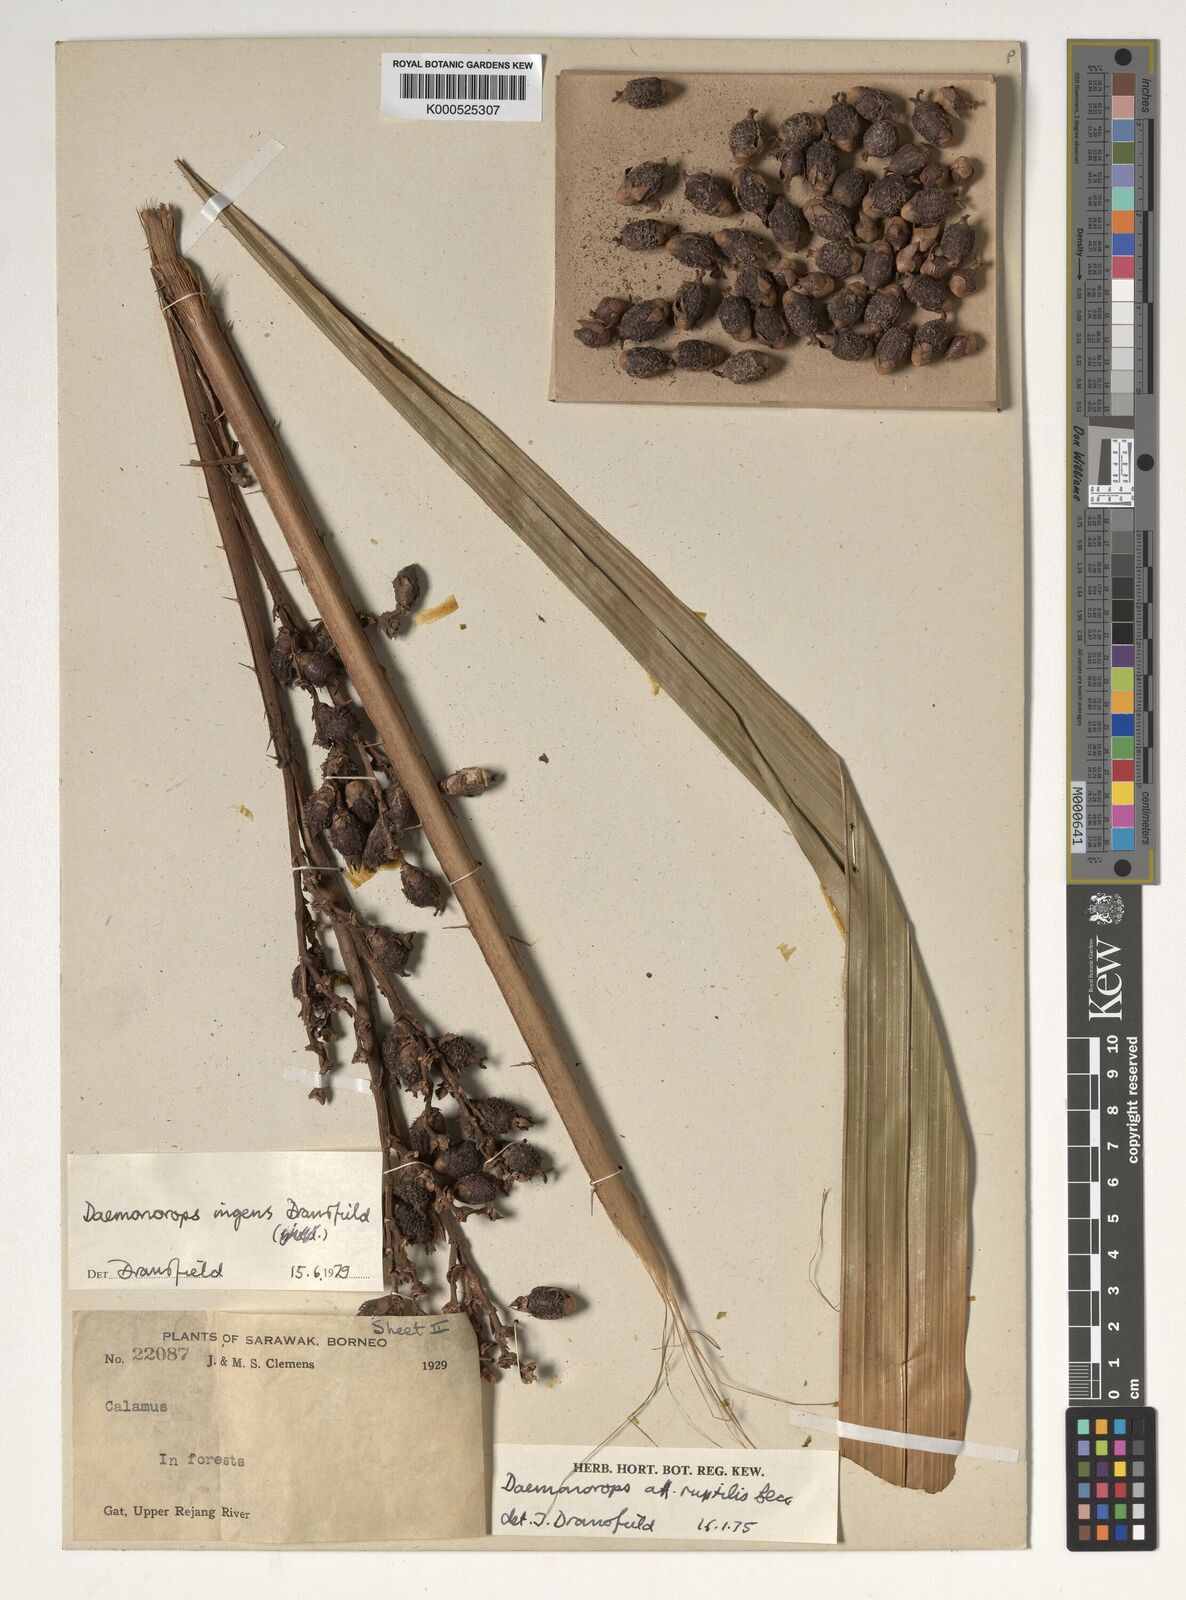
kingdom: Plantae
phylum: Tracheophyta
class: Liliopsida
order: Arecales
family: Arecaceae
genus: Calamus
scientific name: Calamus ingens
